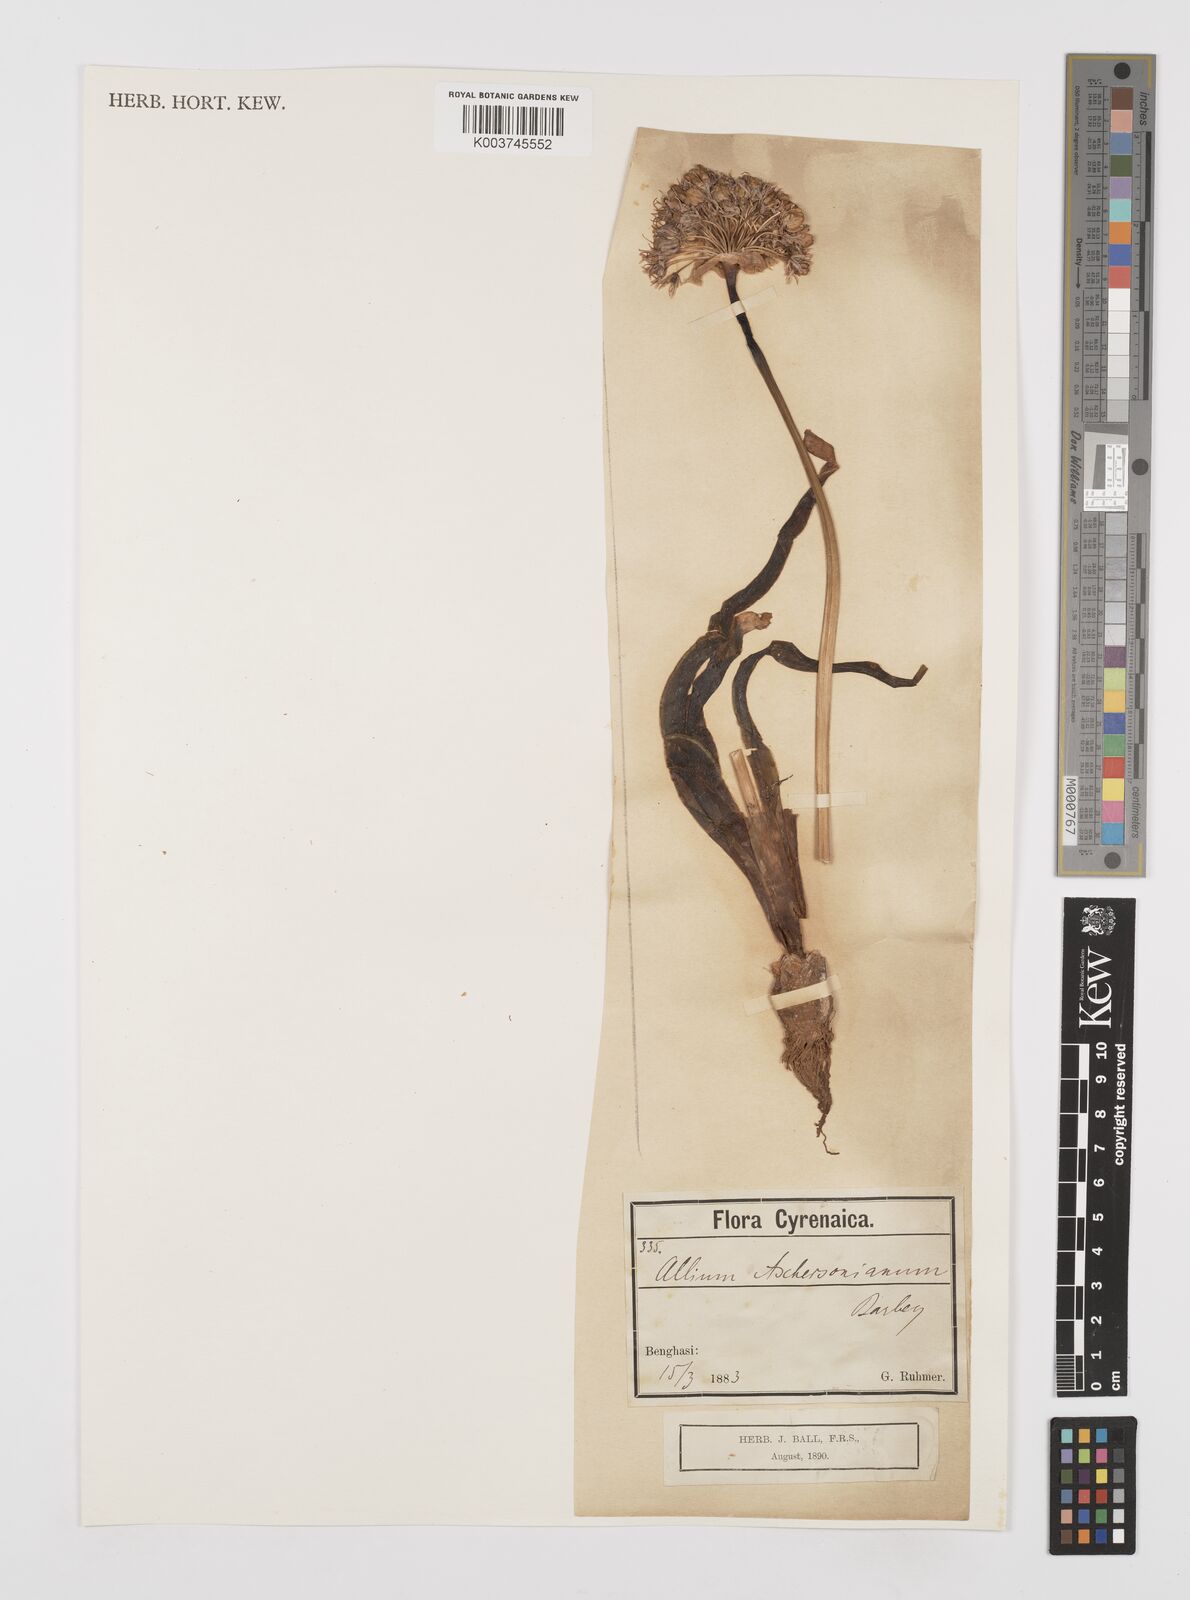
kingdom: Plantae
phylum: Tracheophyta
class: Liliopsida
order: Asparagales
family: Amaryllidaceae
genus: Allium
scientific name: Allium orientale
